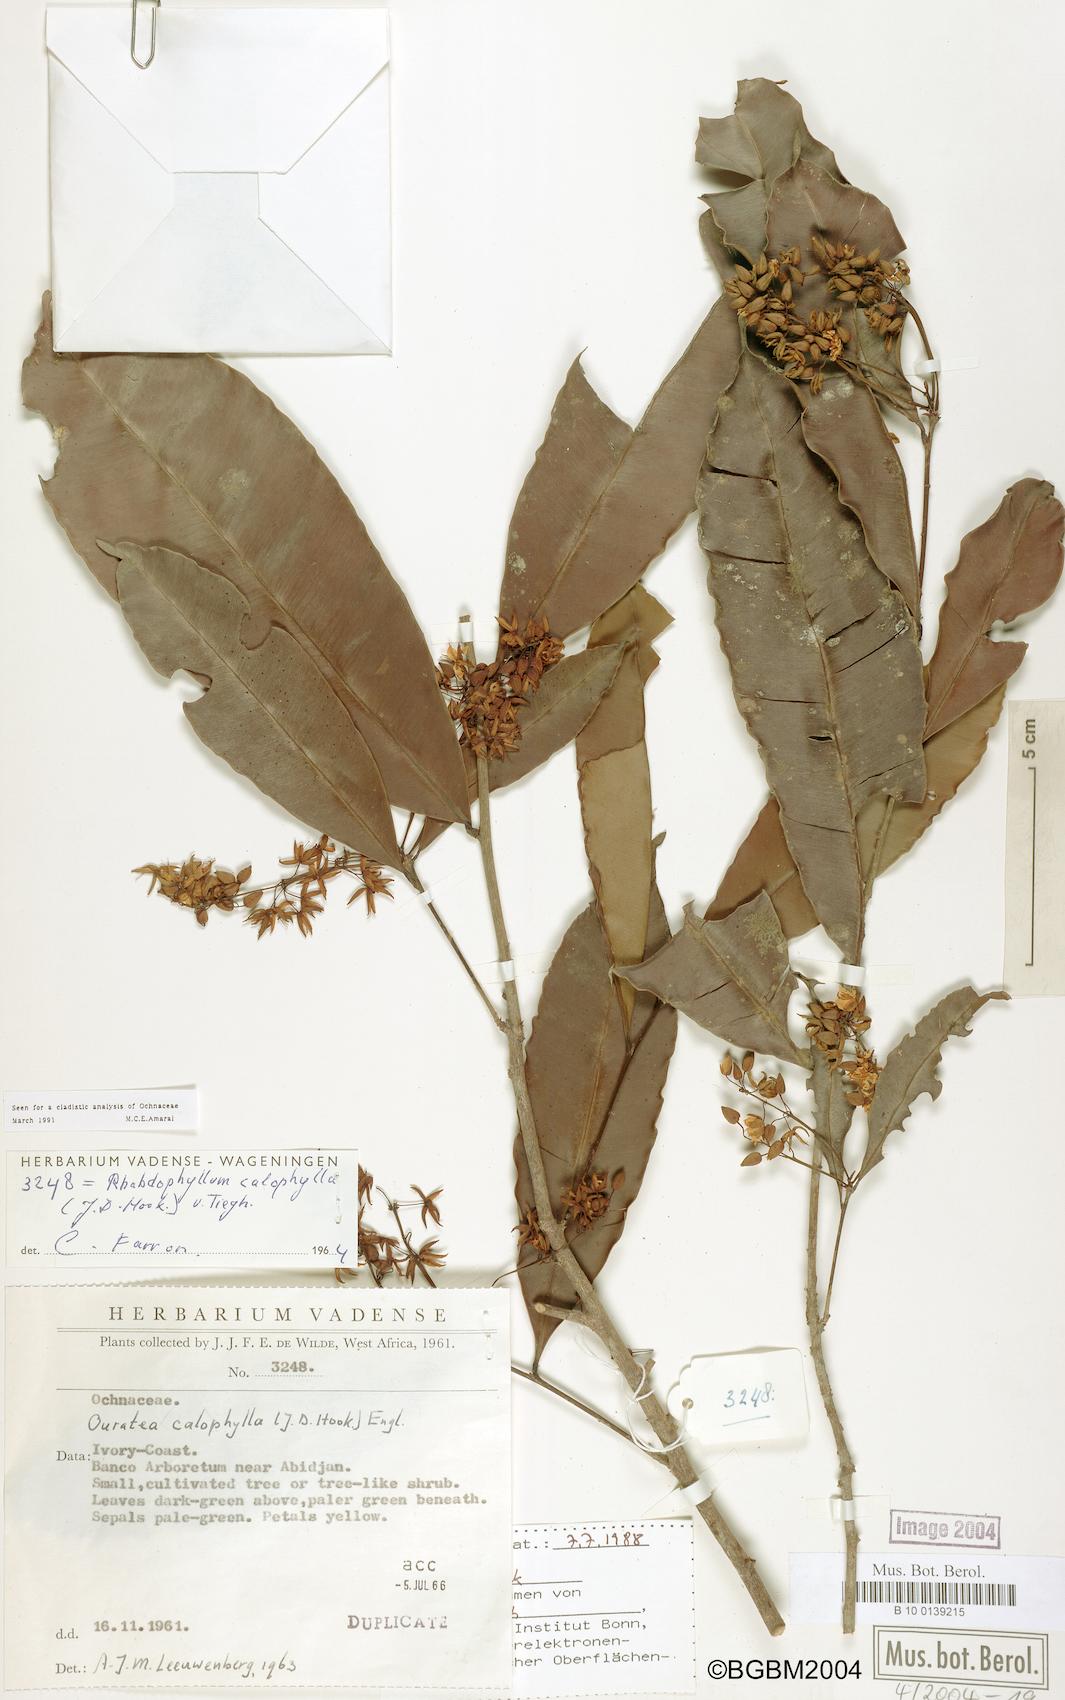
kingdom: Plantae
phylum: Tracheophyta
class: Magnoliopsida
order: Malpighiales
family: Ochnaceae
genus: Rhabdophyllum
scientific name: Rhabdophyllum calophyllum
